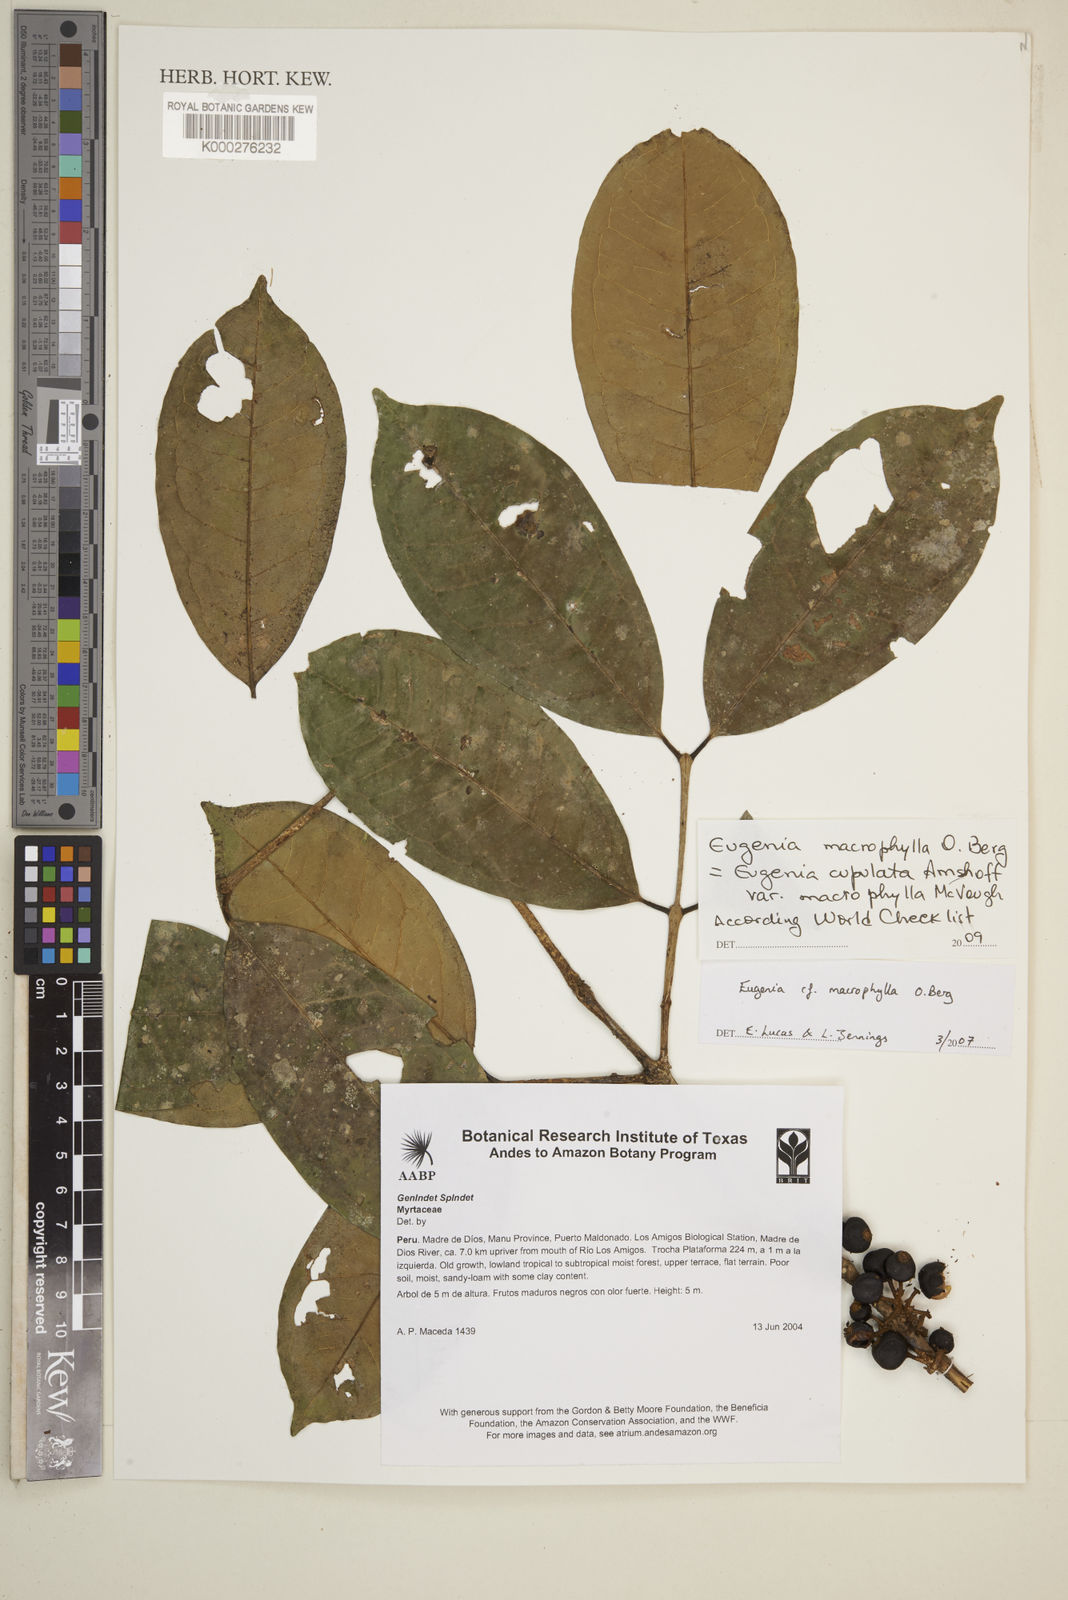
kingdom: Plantae
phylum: Tracheophyta
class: Magnoliopsida
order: Myrtales
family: Myrtaceae
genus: Eugenia
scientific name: Eugenia
